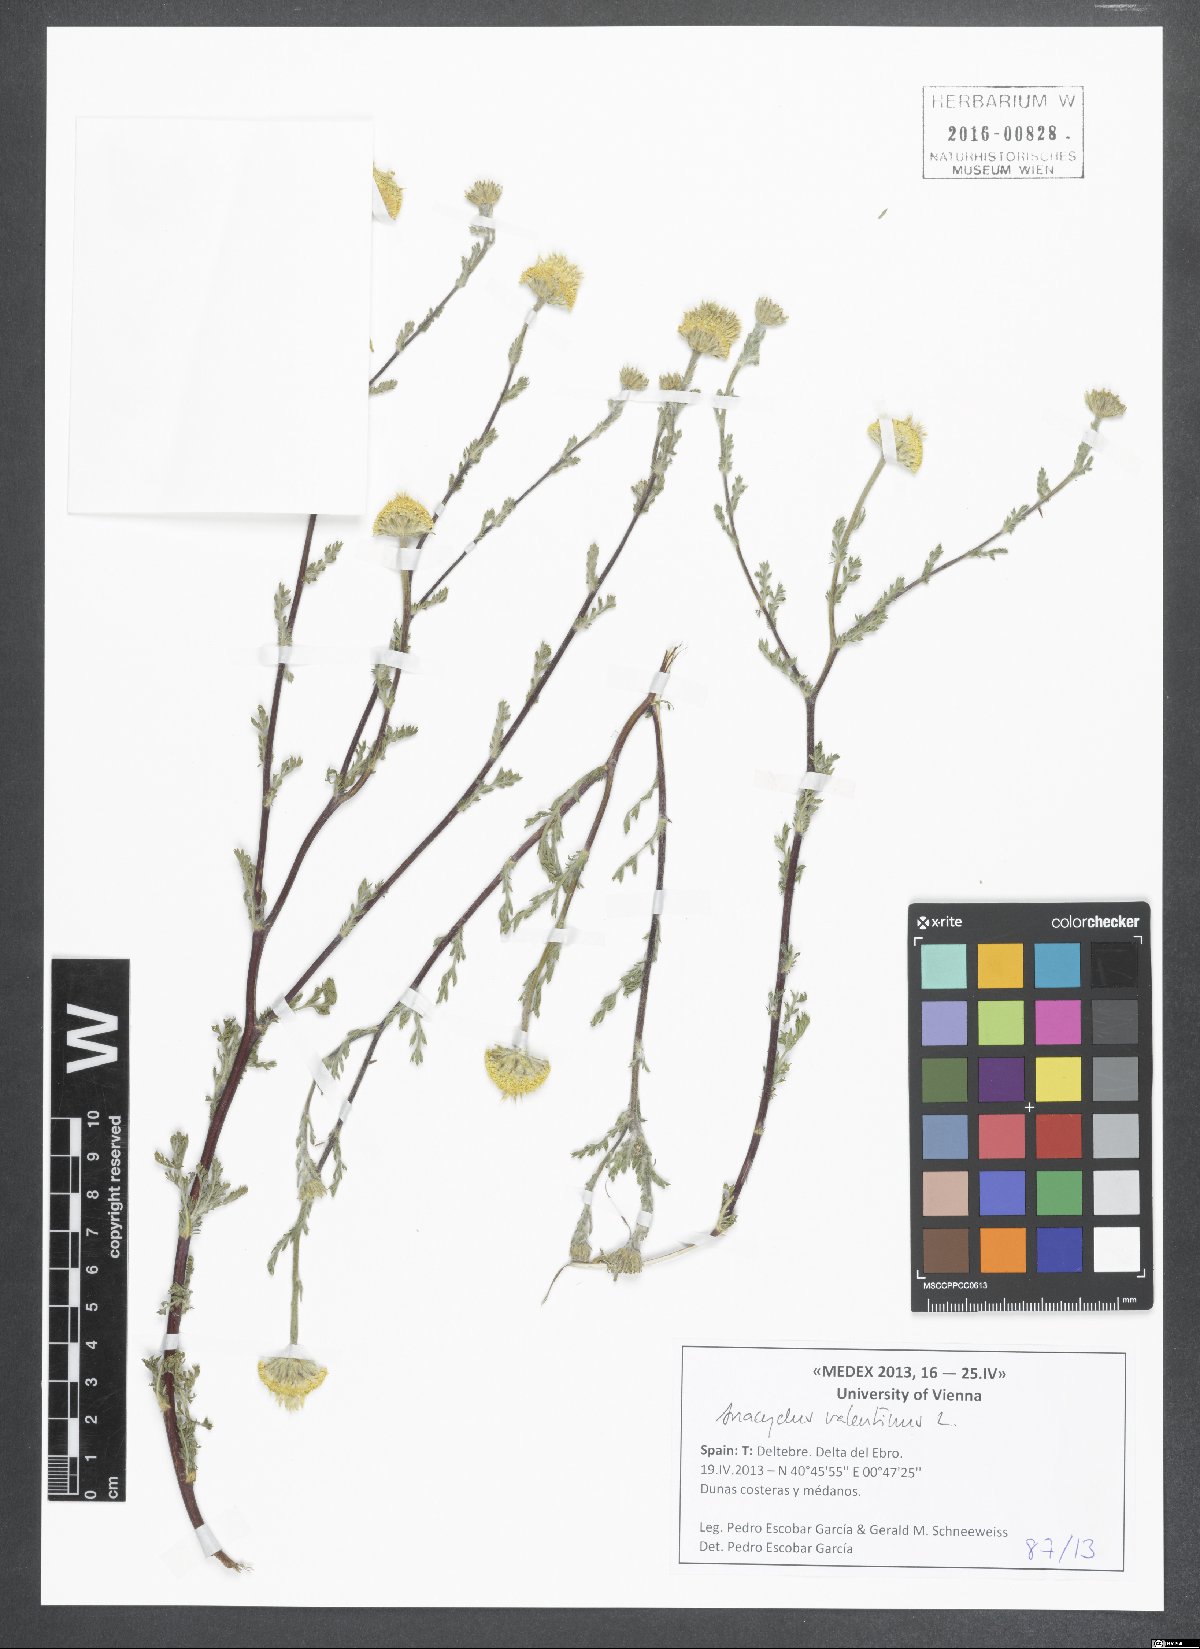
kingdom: Plantae
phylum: Tracheophyta
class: Magnoliopsida
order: Asterales
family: Asteraceae
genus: Anacyclus
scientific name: Anacyclus valentinus
